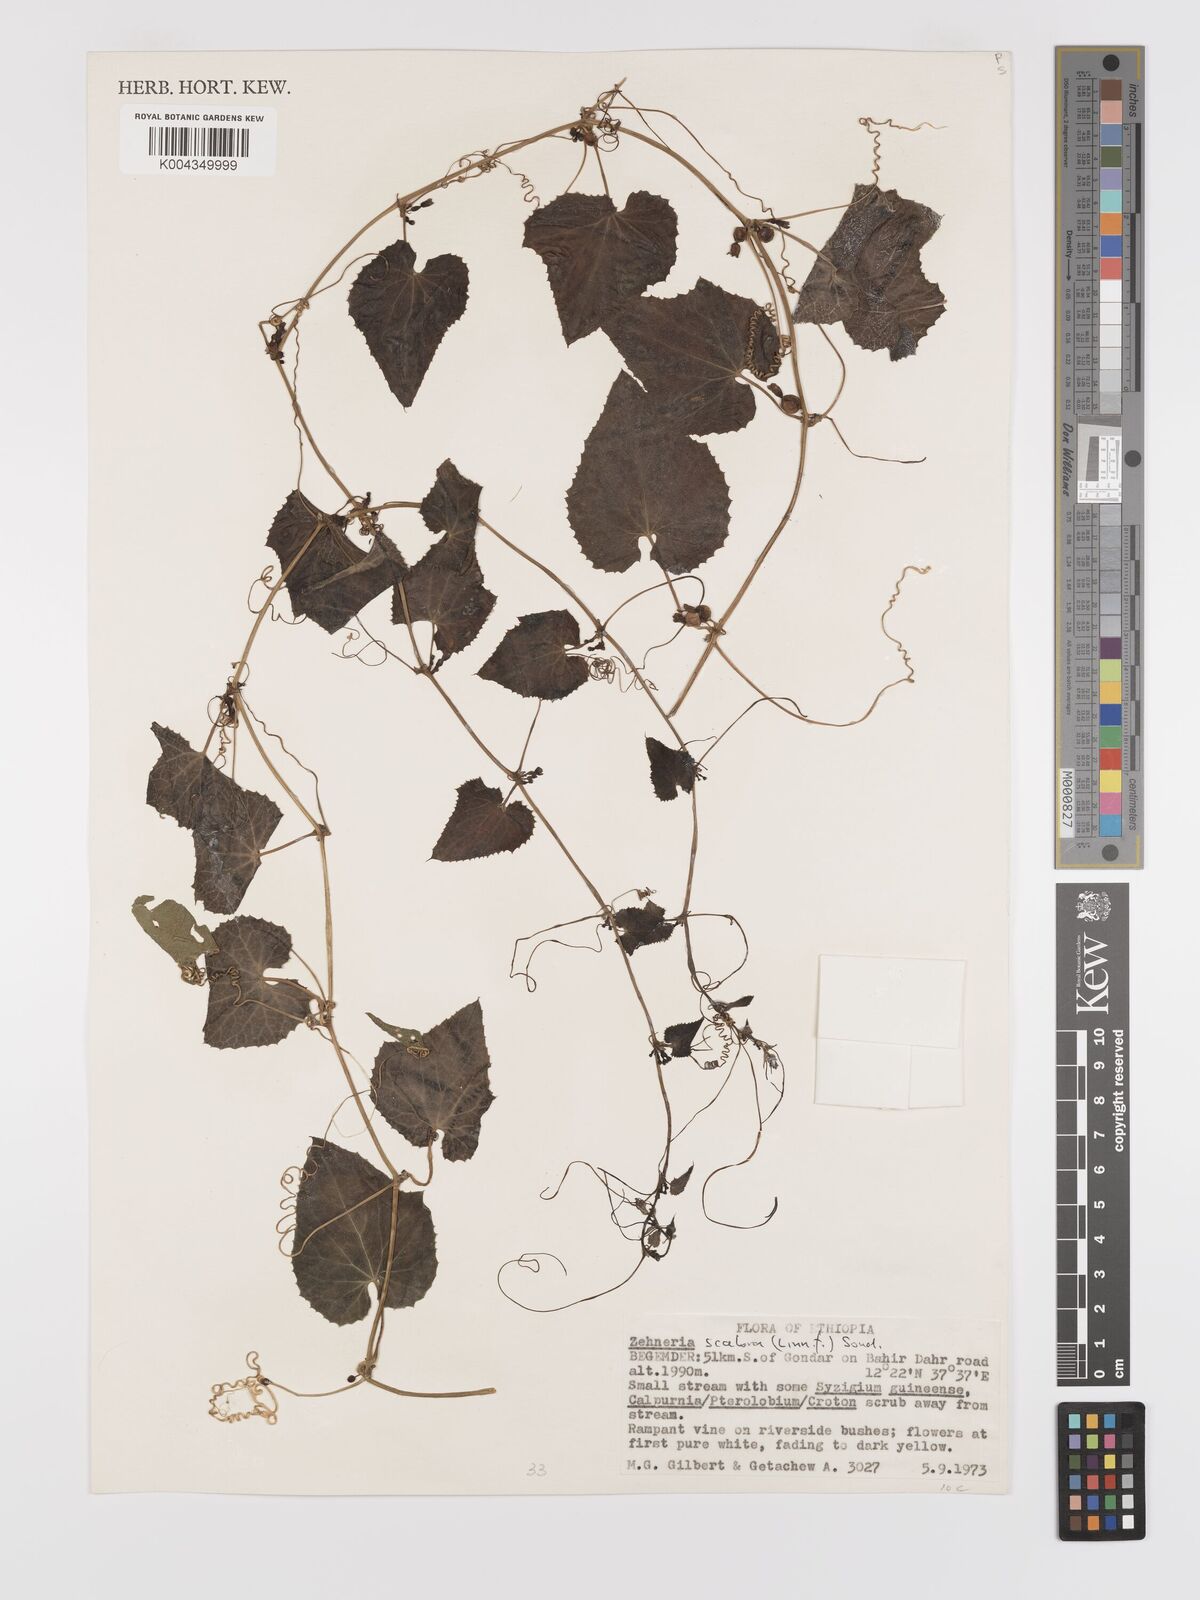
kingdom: Plantae
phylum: Tracheophyta
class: Magnoliopsida
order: Cucurbitales
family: Cucurbitaceae
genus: Zehneria
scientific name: Zehneria scabra
